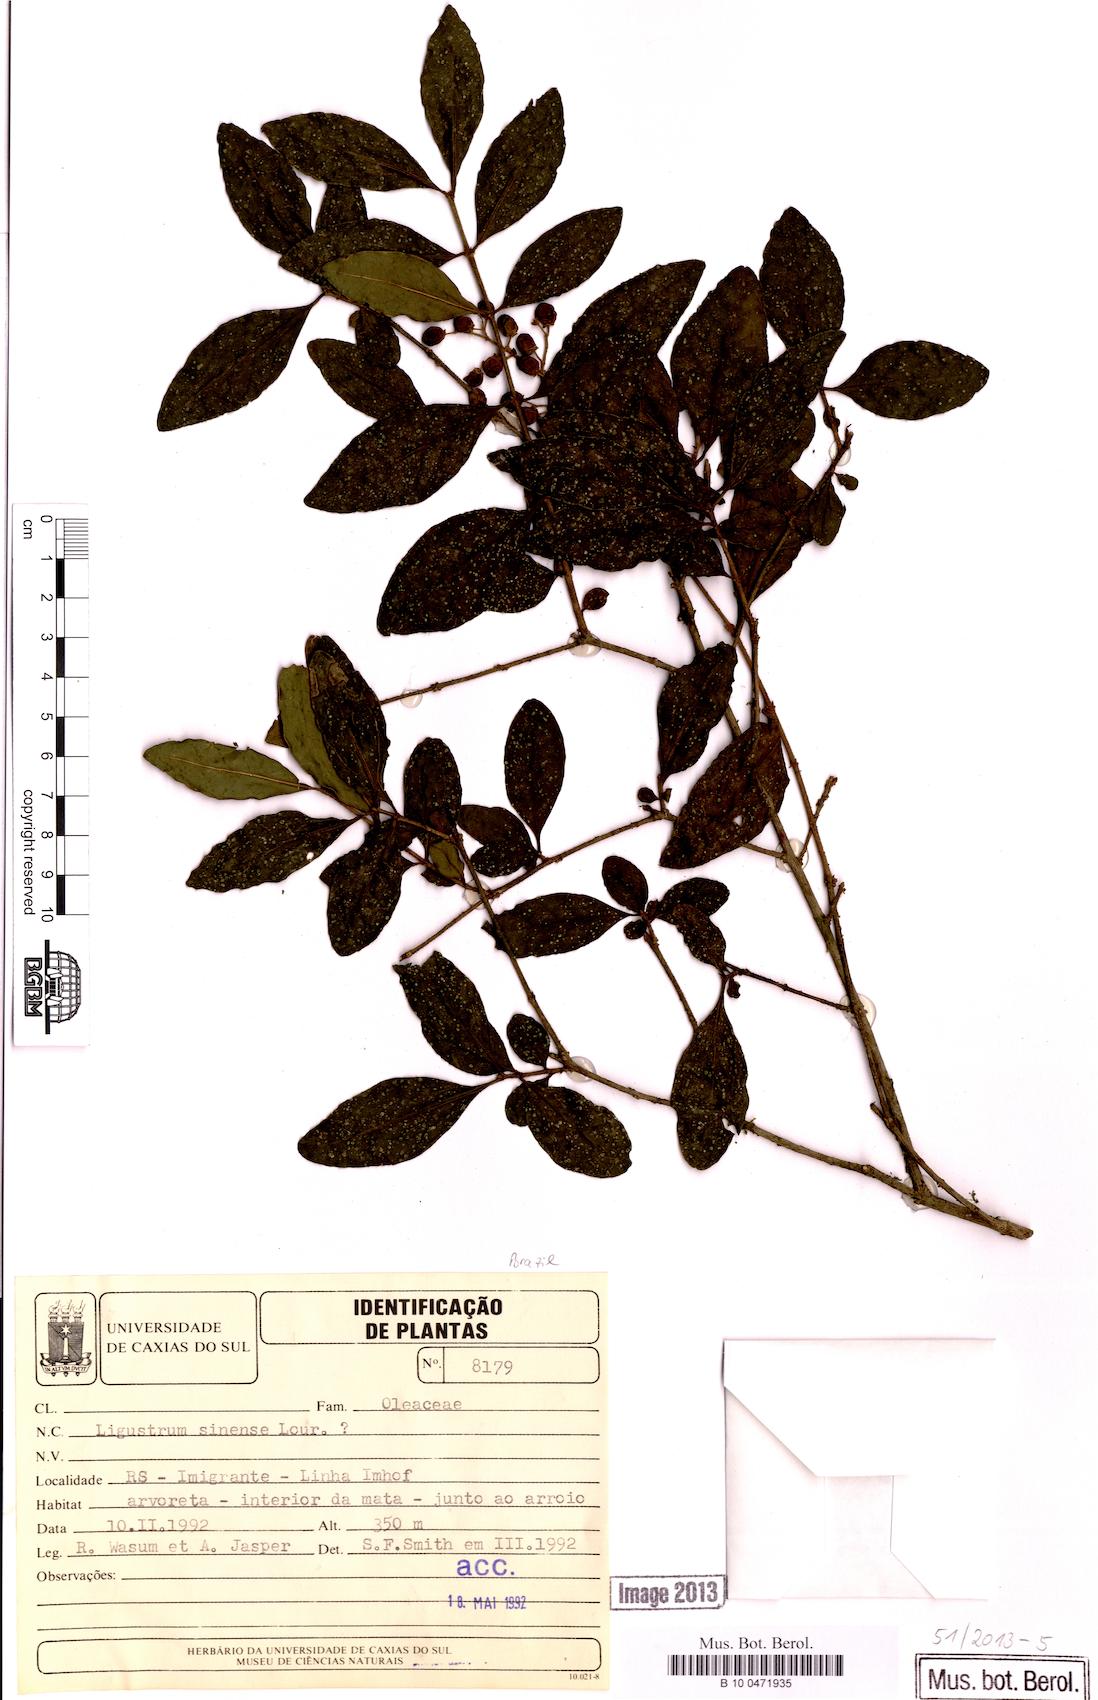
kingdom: Plantae
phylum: Tracheophyta
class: Magnoliopsida
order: Lamiales
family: Oleaceae
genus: Ligustrum
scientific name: Ligustrum sinense
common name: Chinese privet
